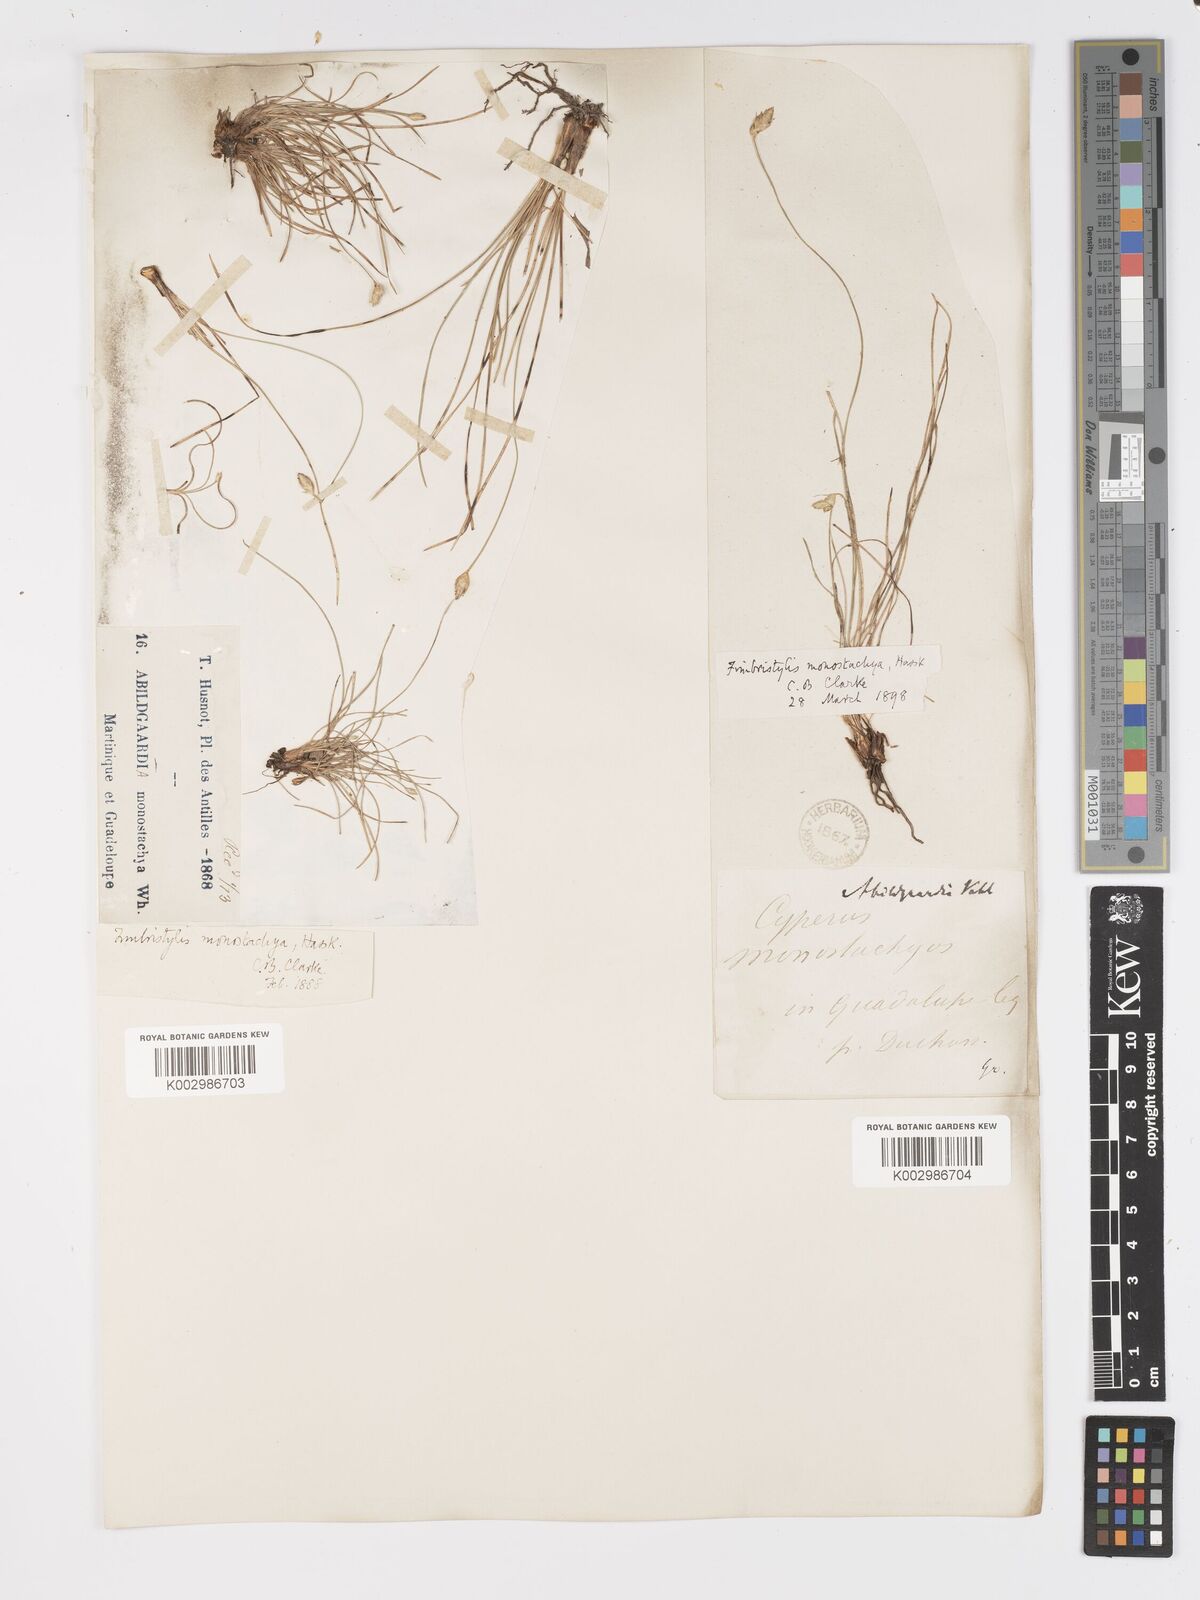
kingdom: Plantae
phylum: Tracheophyta
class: Liliopsida
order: Poales
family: Cyperaceae
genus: Abildgaardia
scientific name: Abildgaardia ovata
